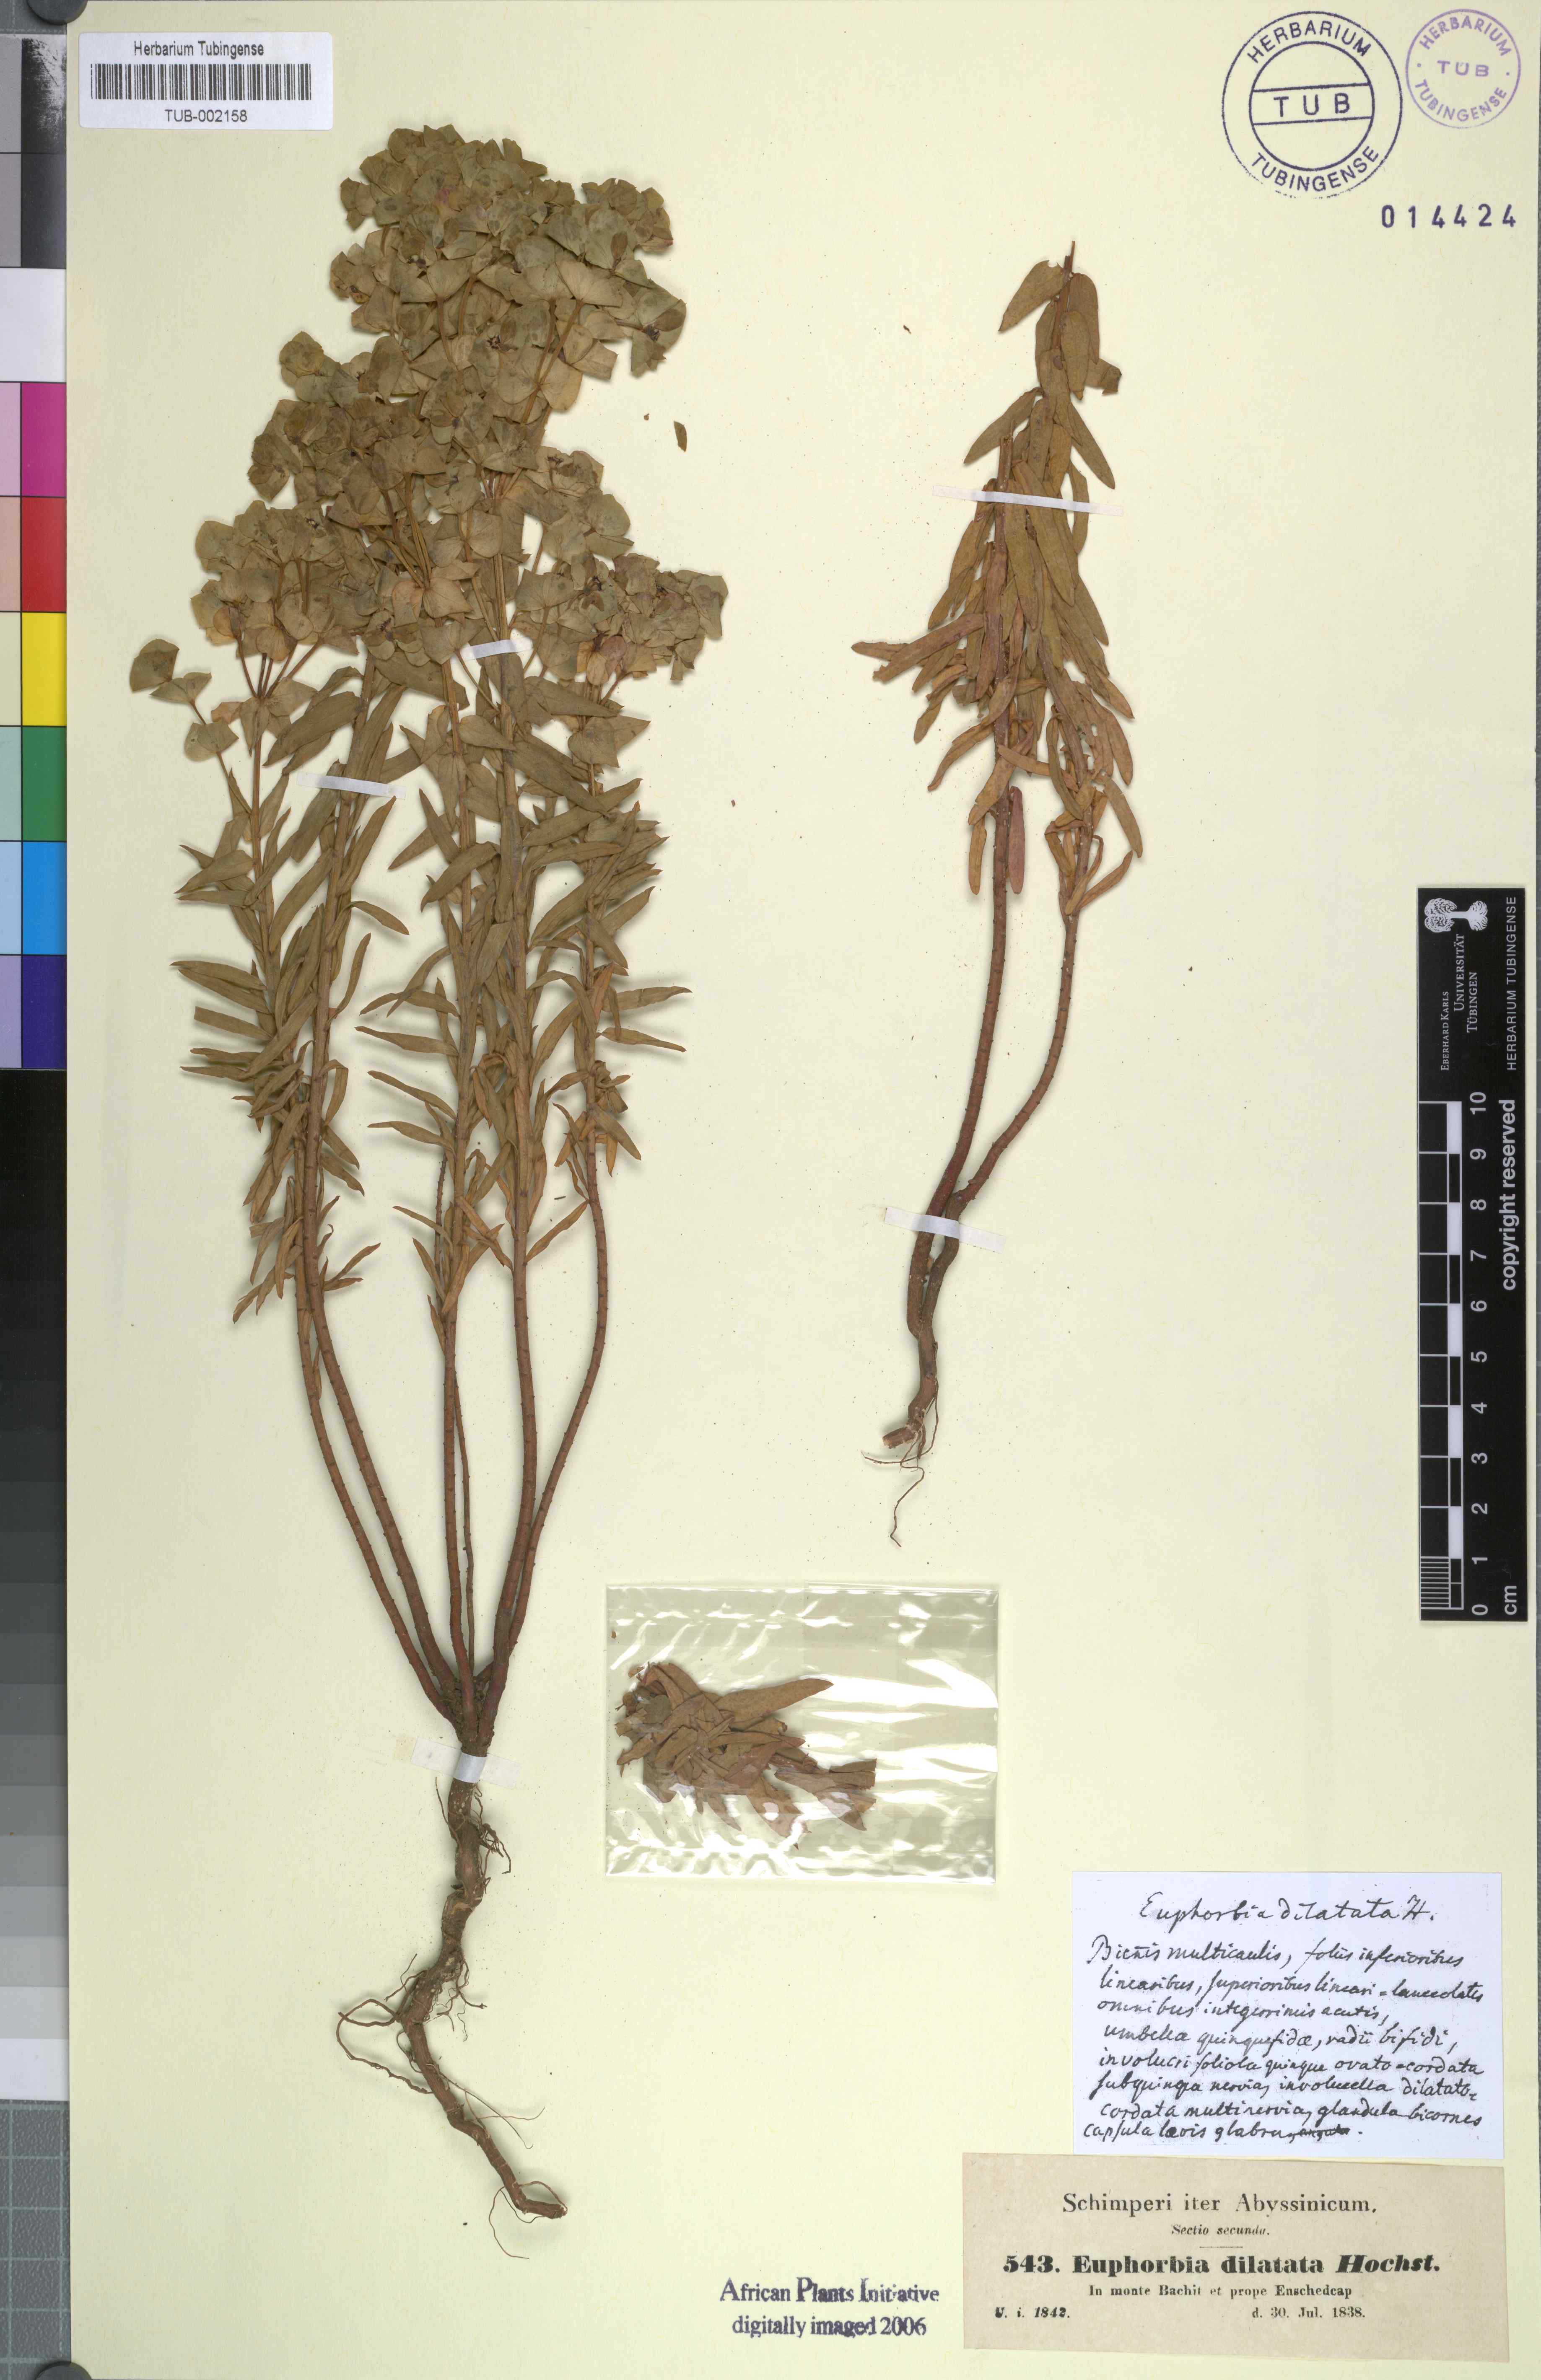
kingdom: Plantae
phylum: Tracheophyta
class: Magnoliopsida
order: Malpighiales
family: Euphorbiaceae
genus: Euphorbia
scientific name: Euphorbia schimperiana
